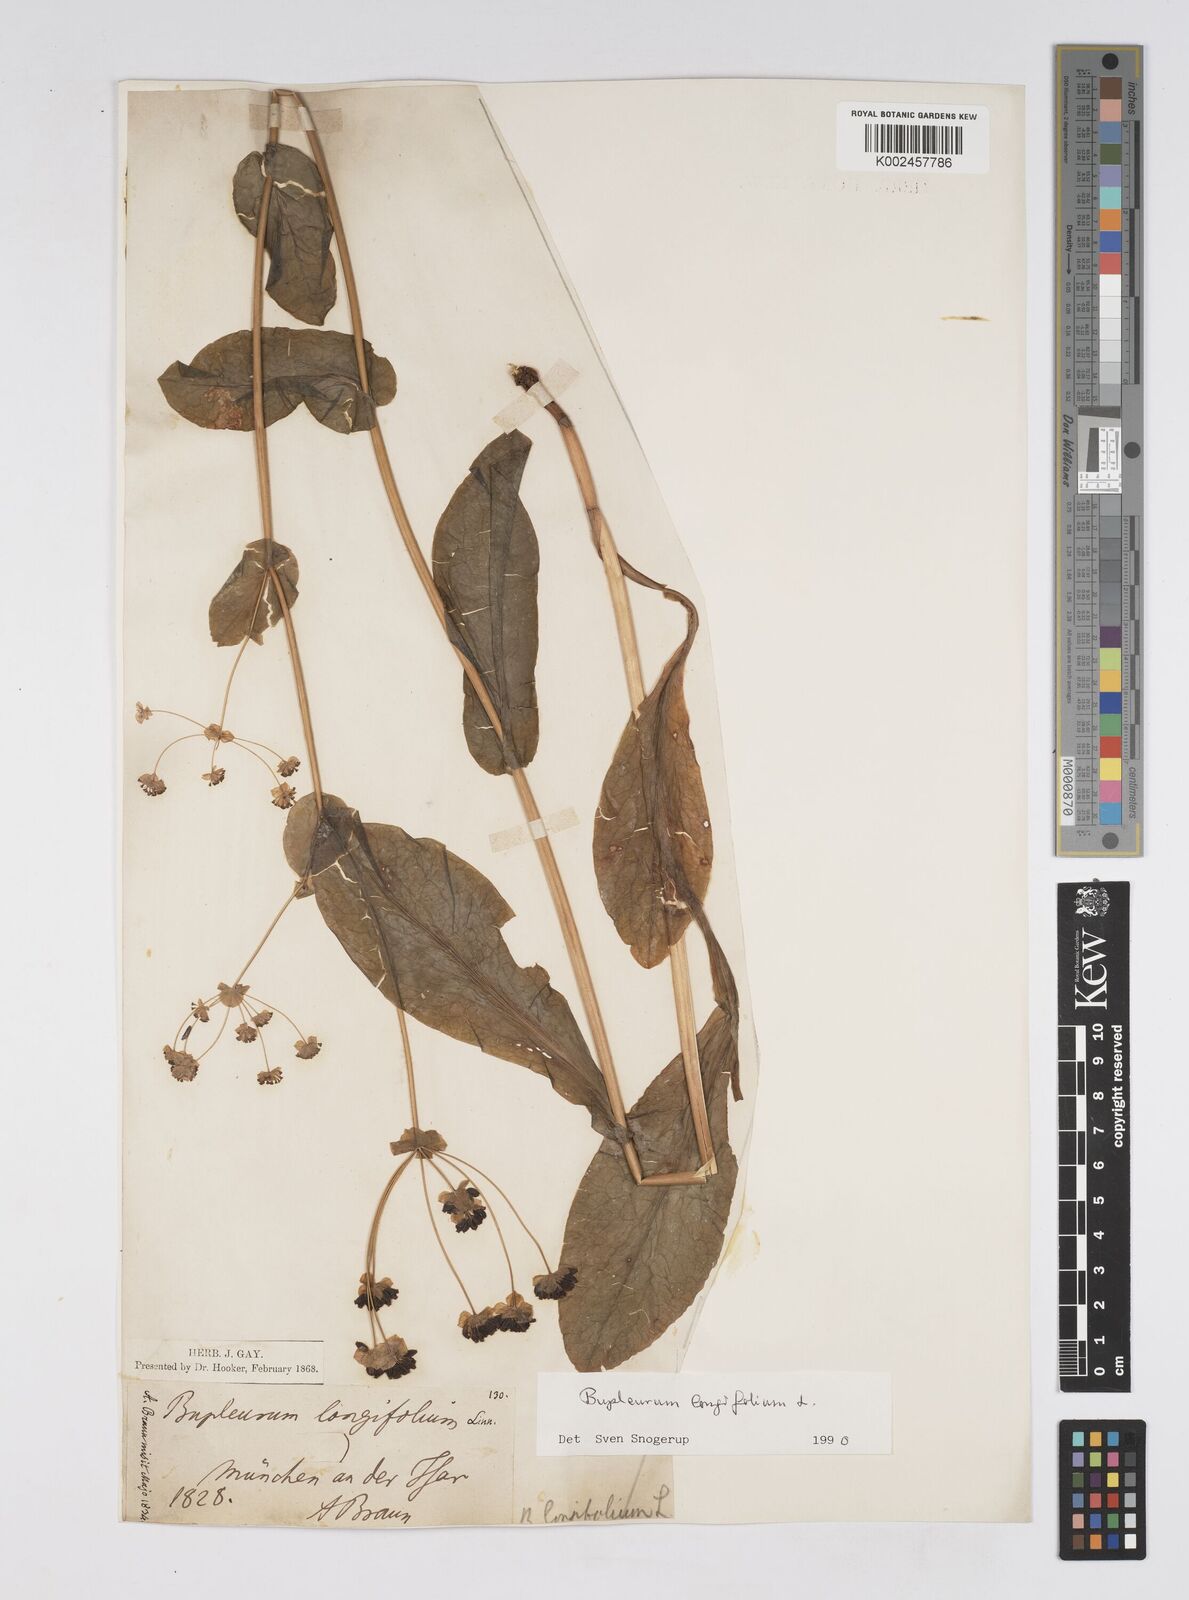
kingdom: Plantae
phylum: Tracheophyta
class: Magnoliopsida
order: Apiales
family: Apiaceae
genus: Bupleurum
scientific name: Bupleurum longifolium
